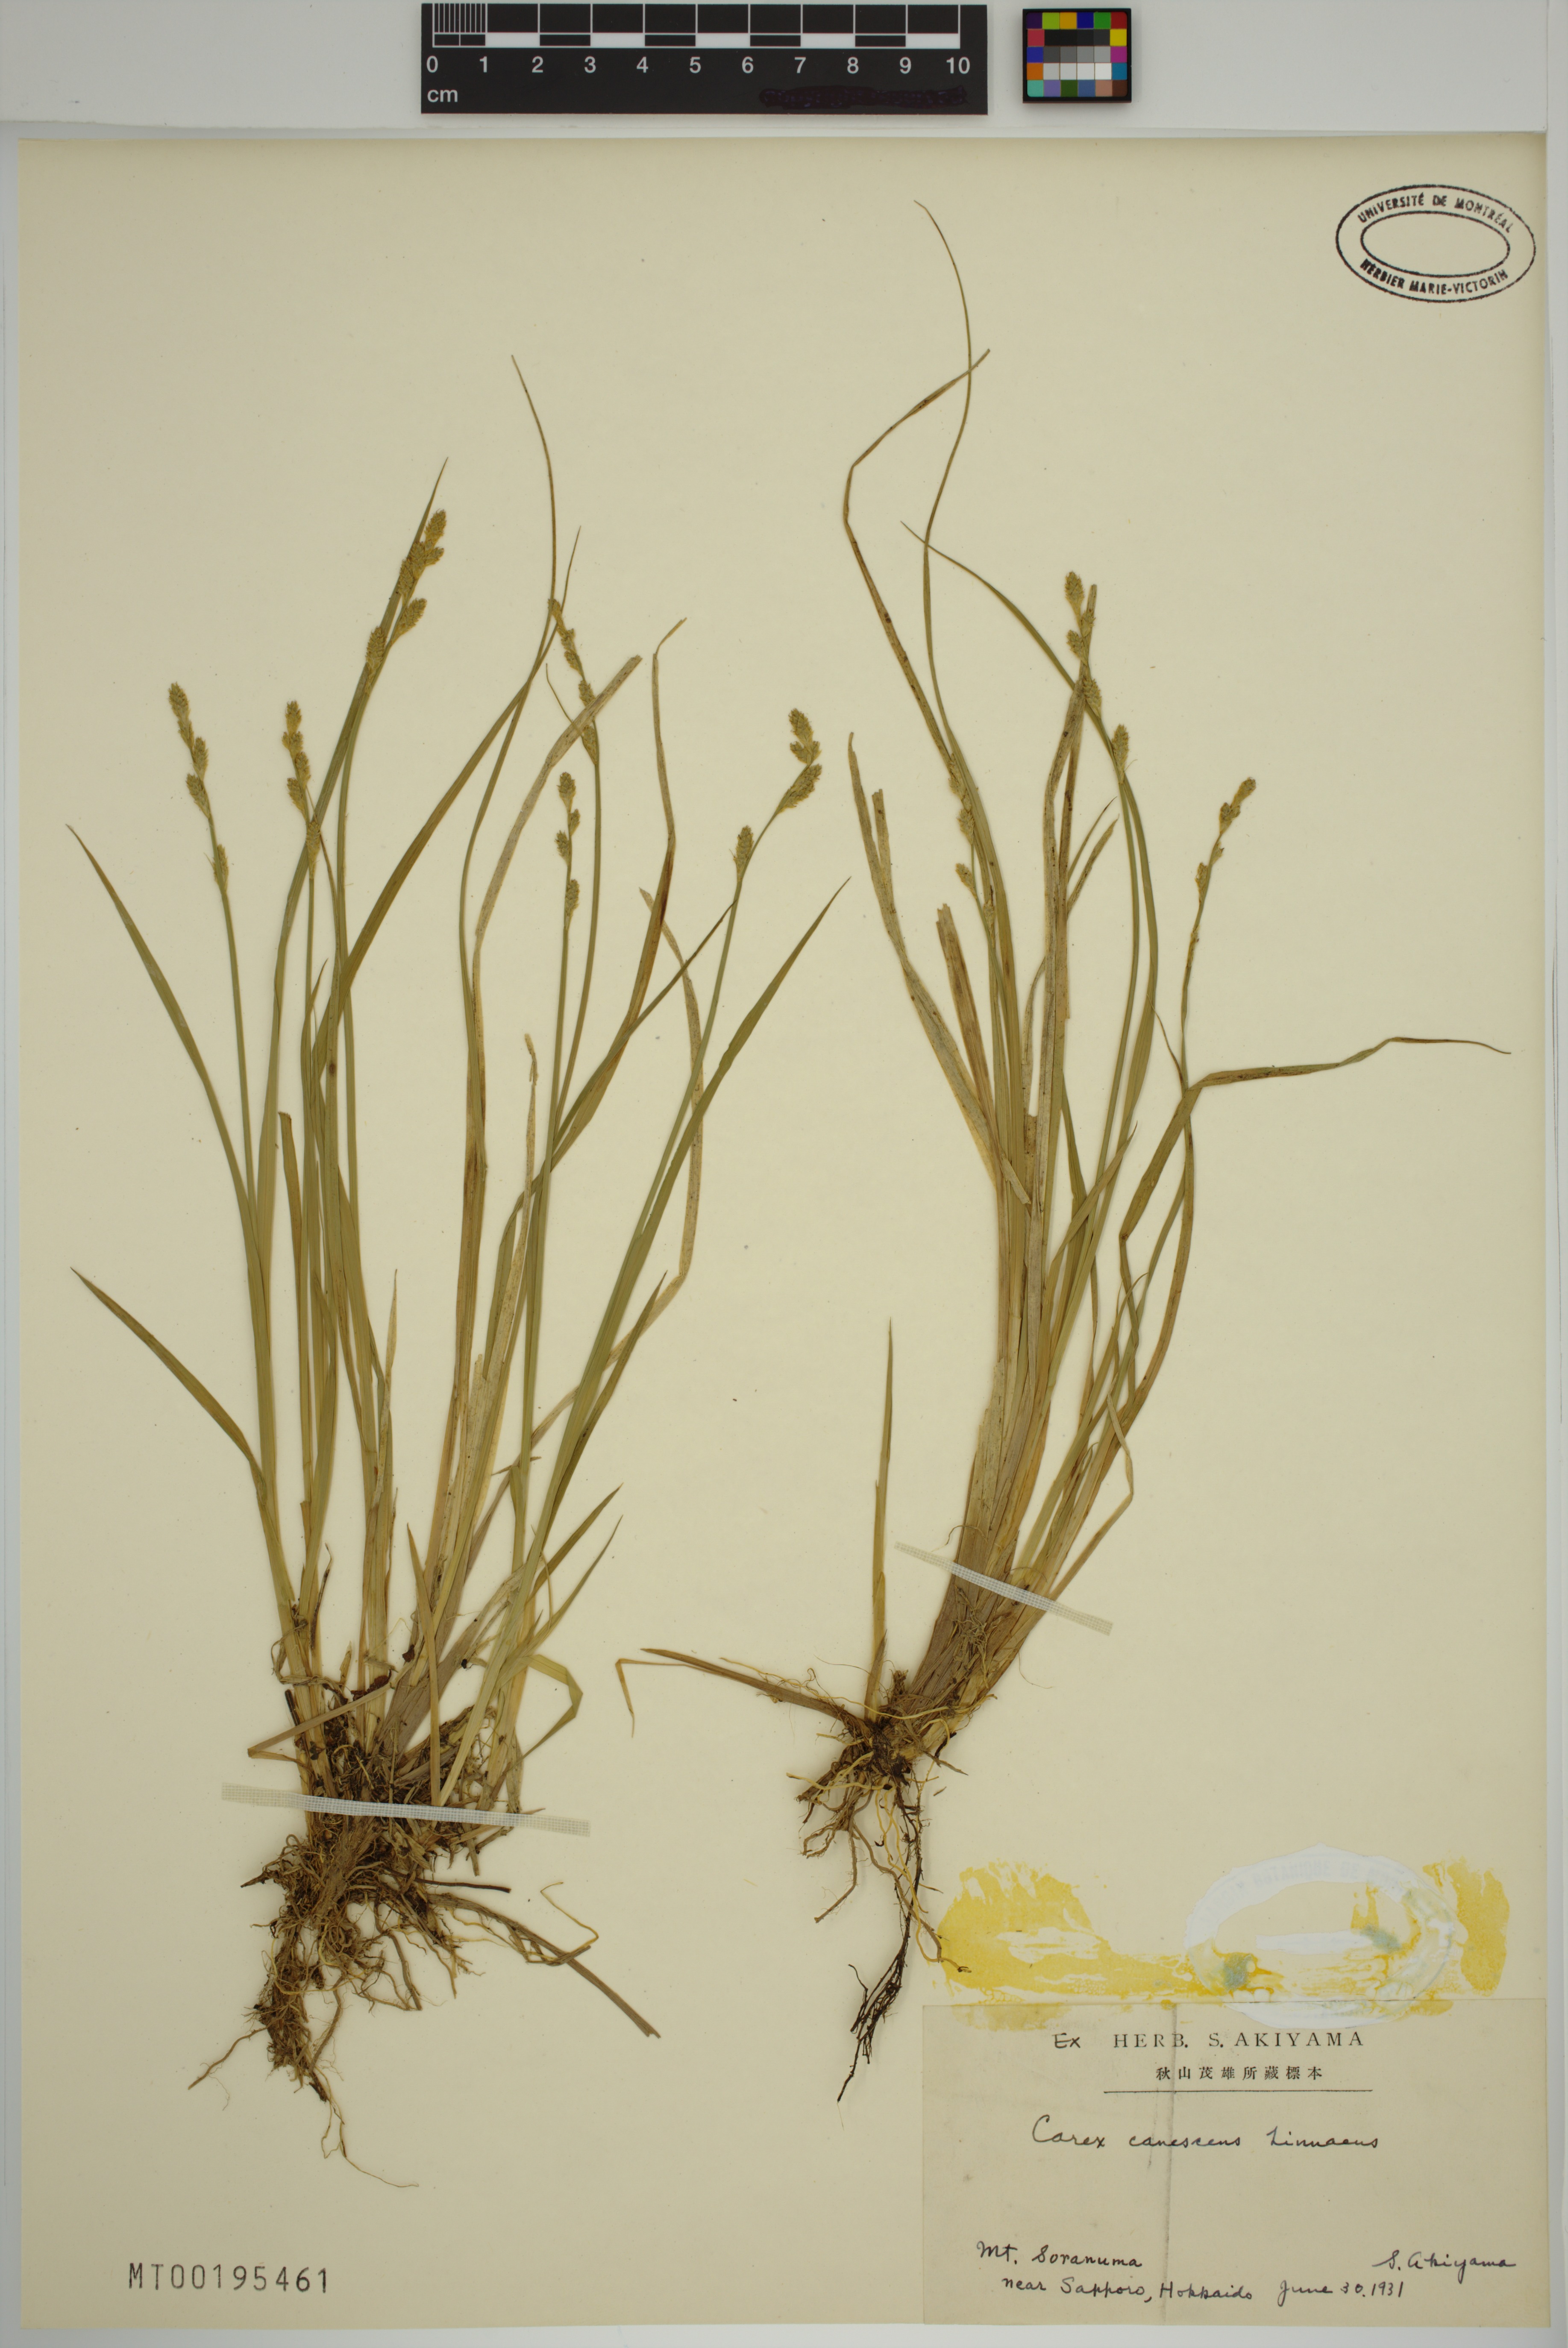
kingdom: Plantae
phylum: Tracheophyta
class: Liliopsida
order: Poales
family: Cyperaceae
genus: Carex
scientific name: Carex canescens
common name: White sedge
